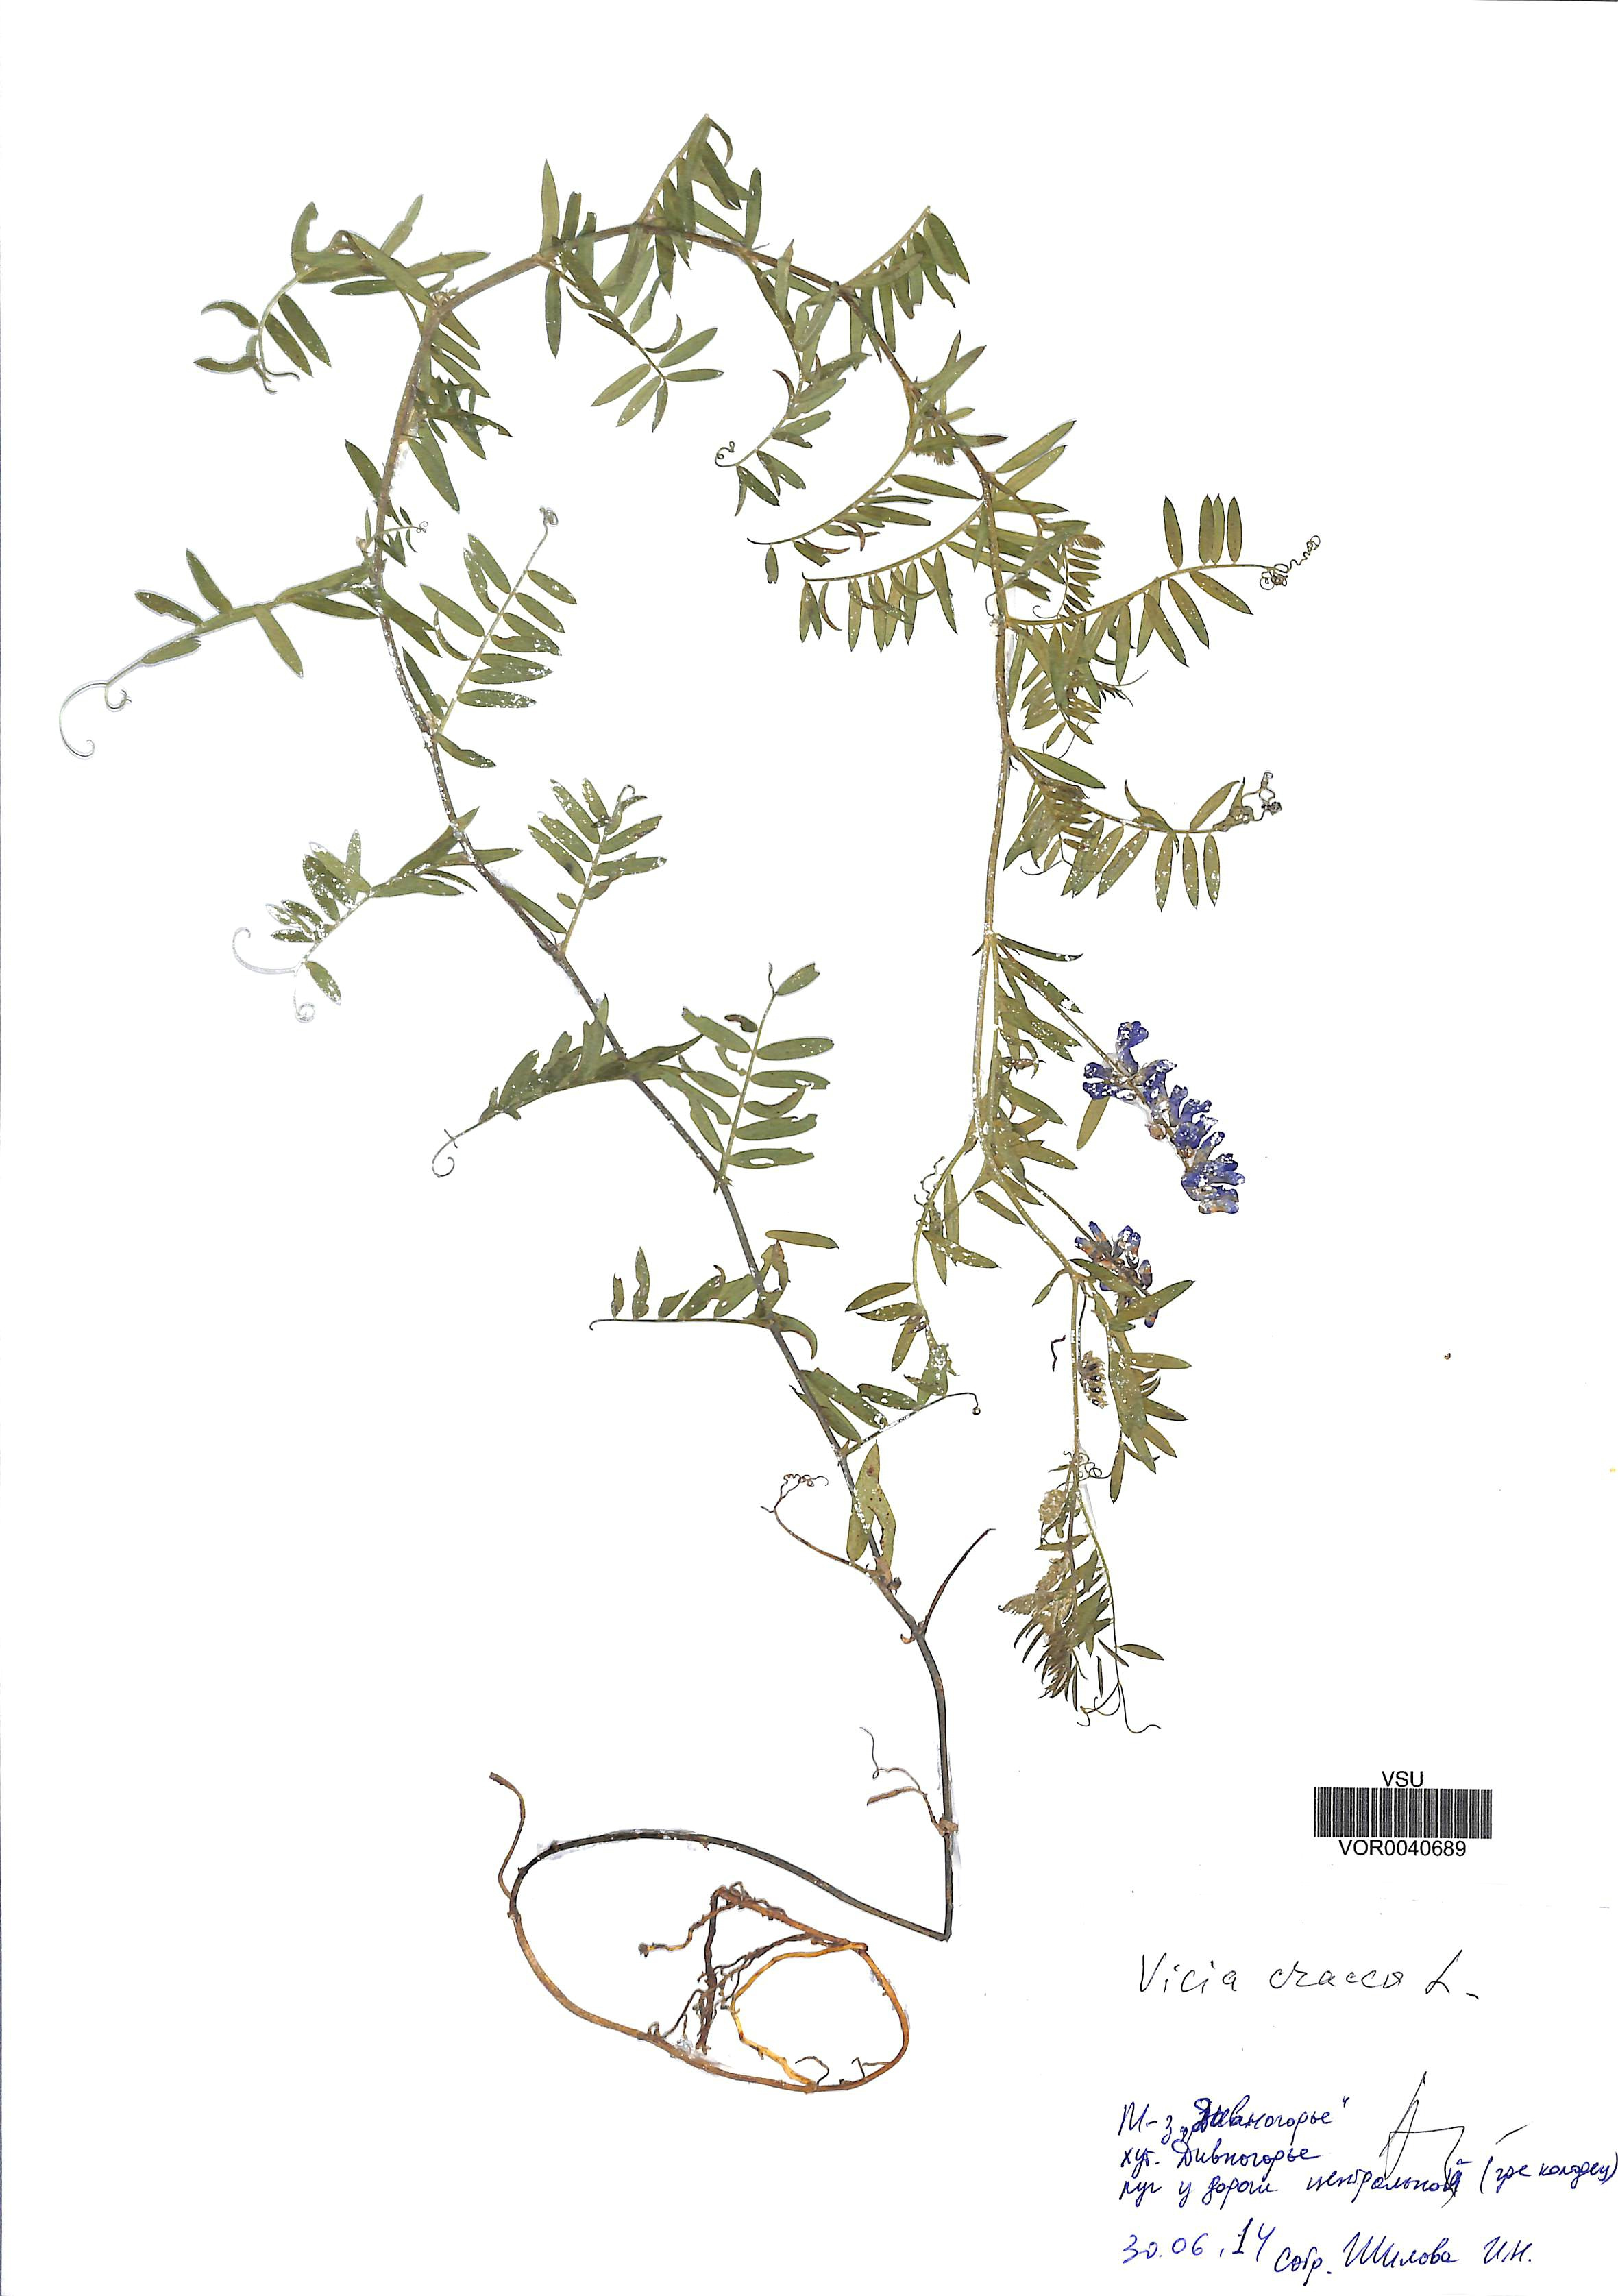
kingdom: Plantae
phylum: Tracheophyta
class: Magnoliopsida
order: Fabales
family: Fabaceae
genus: Vicia
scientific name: Vicia cracca
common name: Bird vetch
